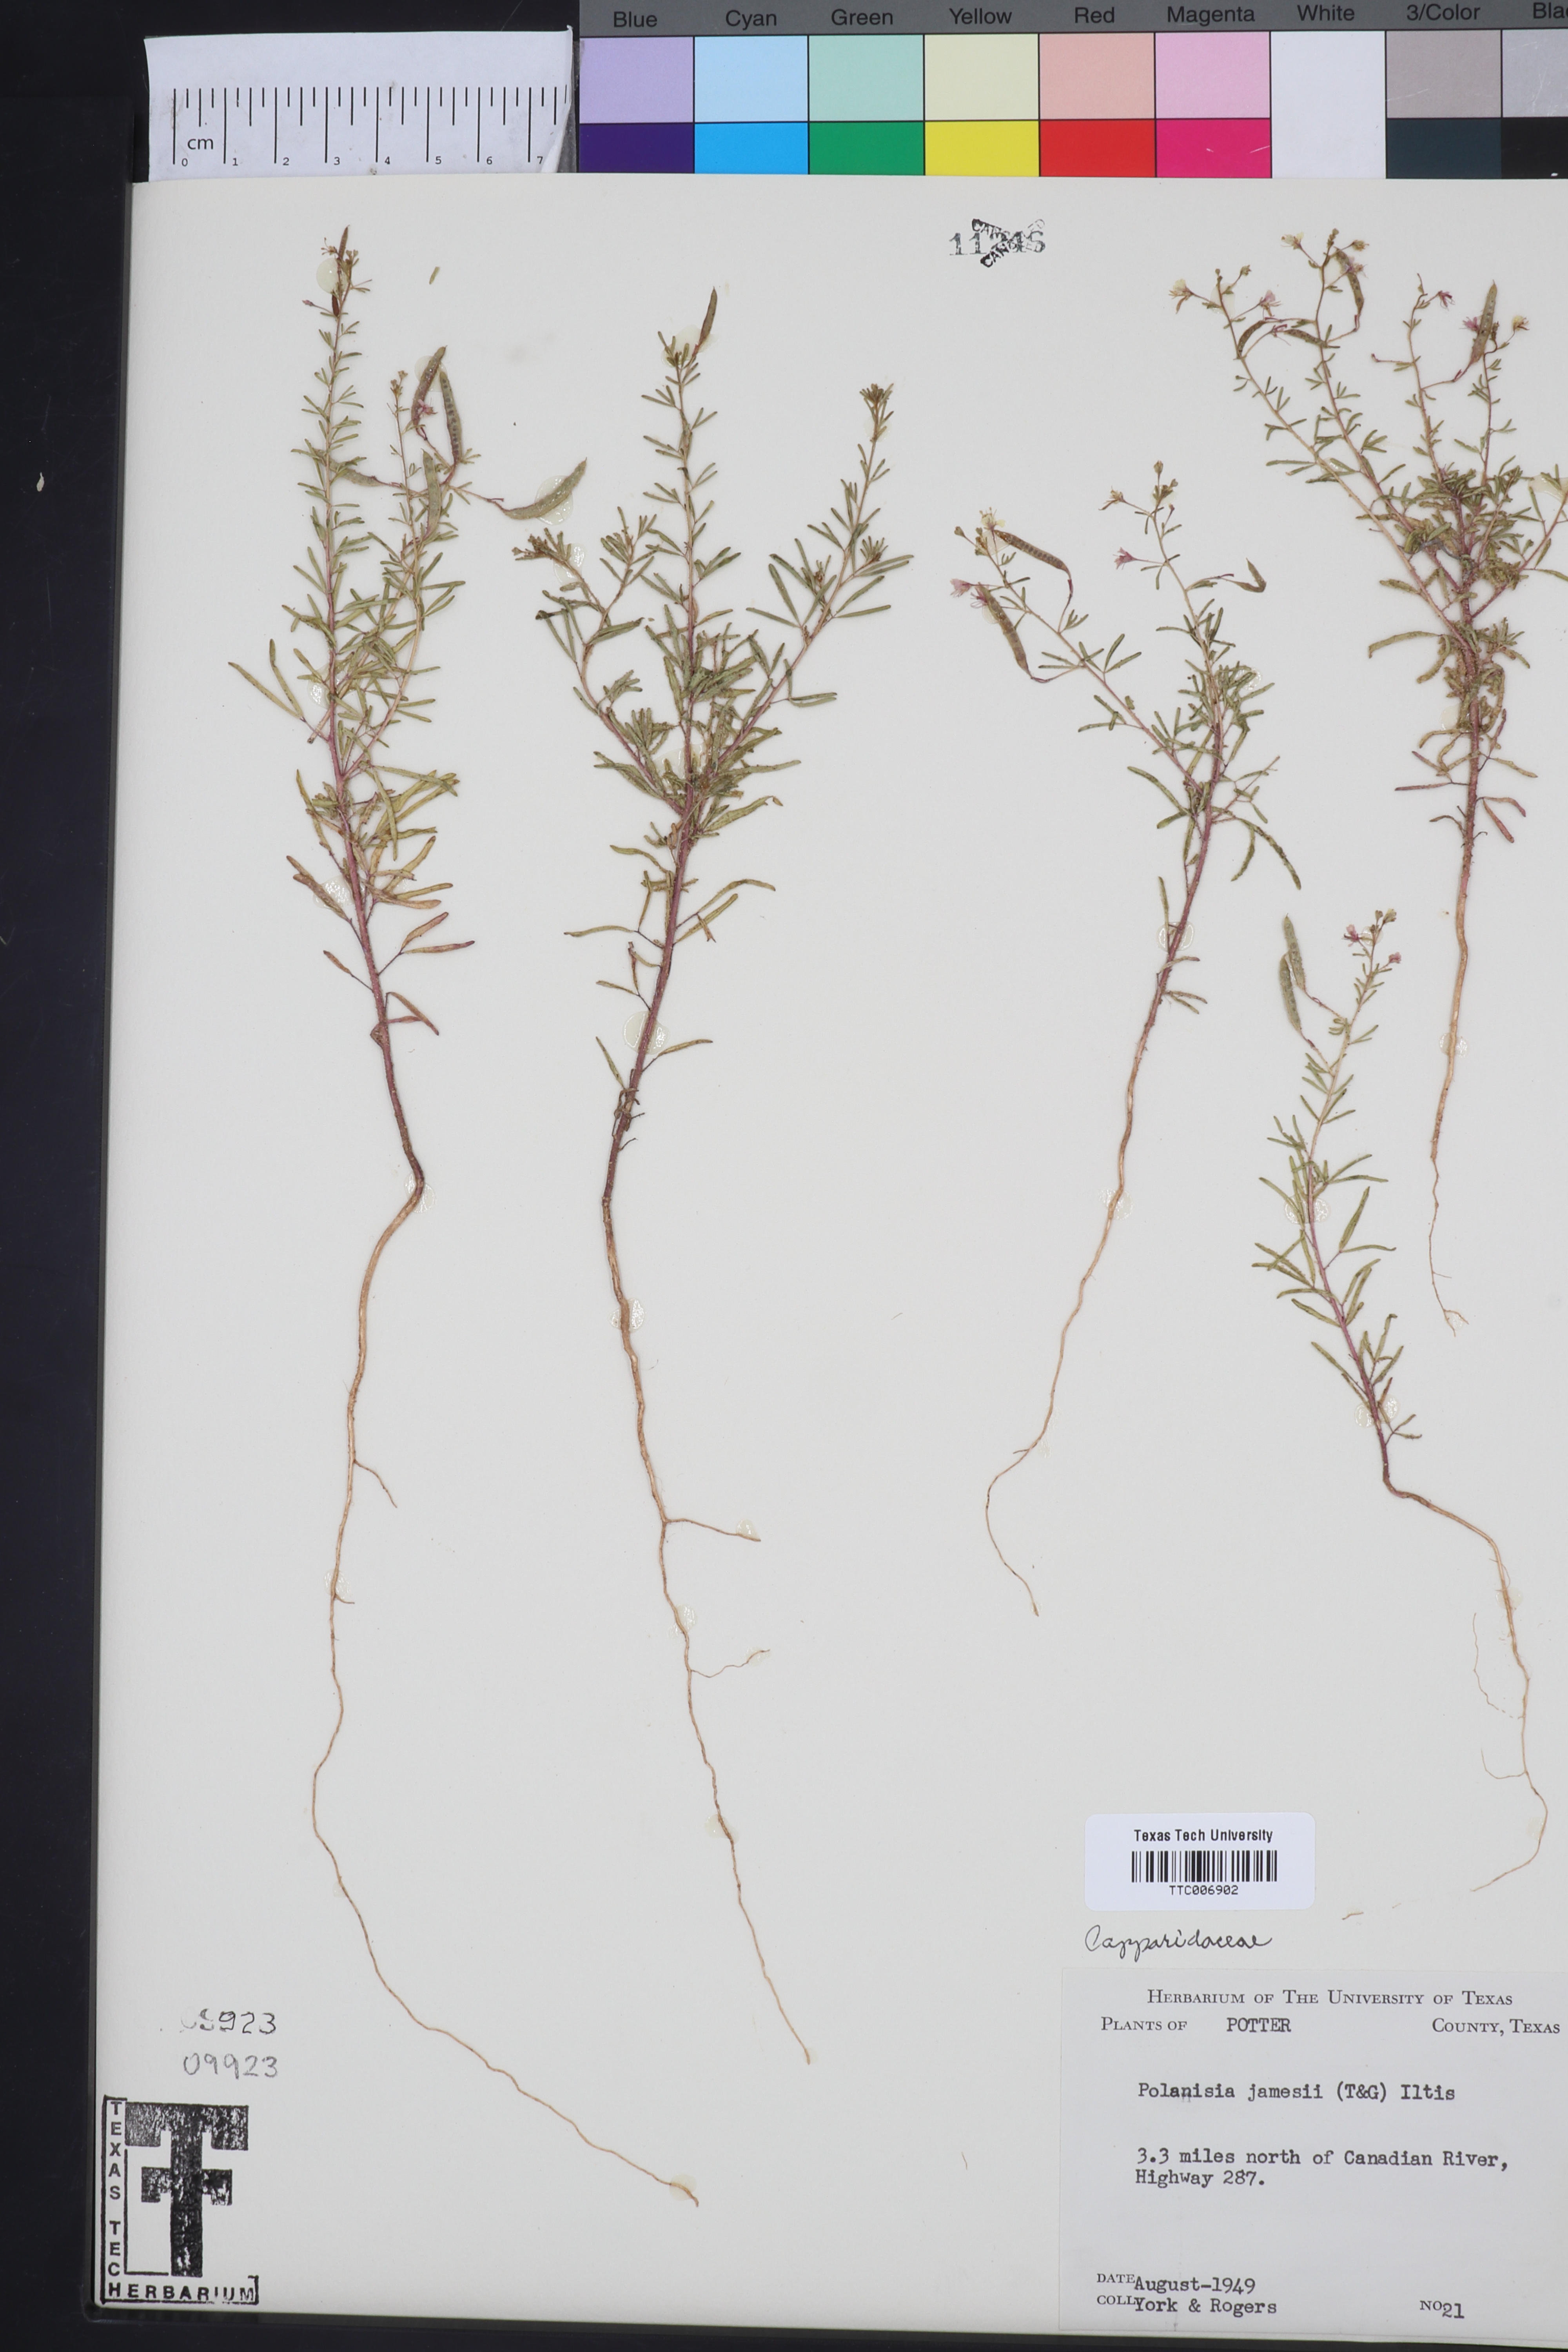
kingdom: Plantae
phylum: Tracheophyta
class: Magnoliopsida
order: Brassicales
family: Cleomaceae
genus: Polanisia
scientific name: Polanisia jamesii
